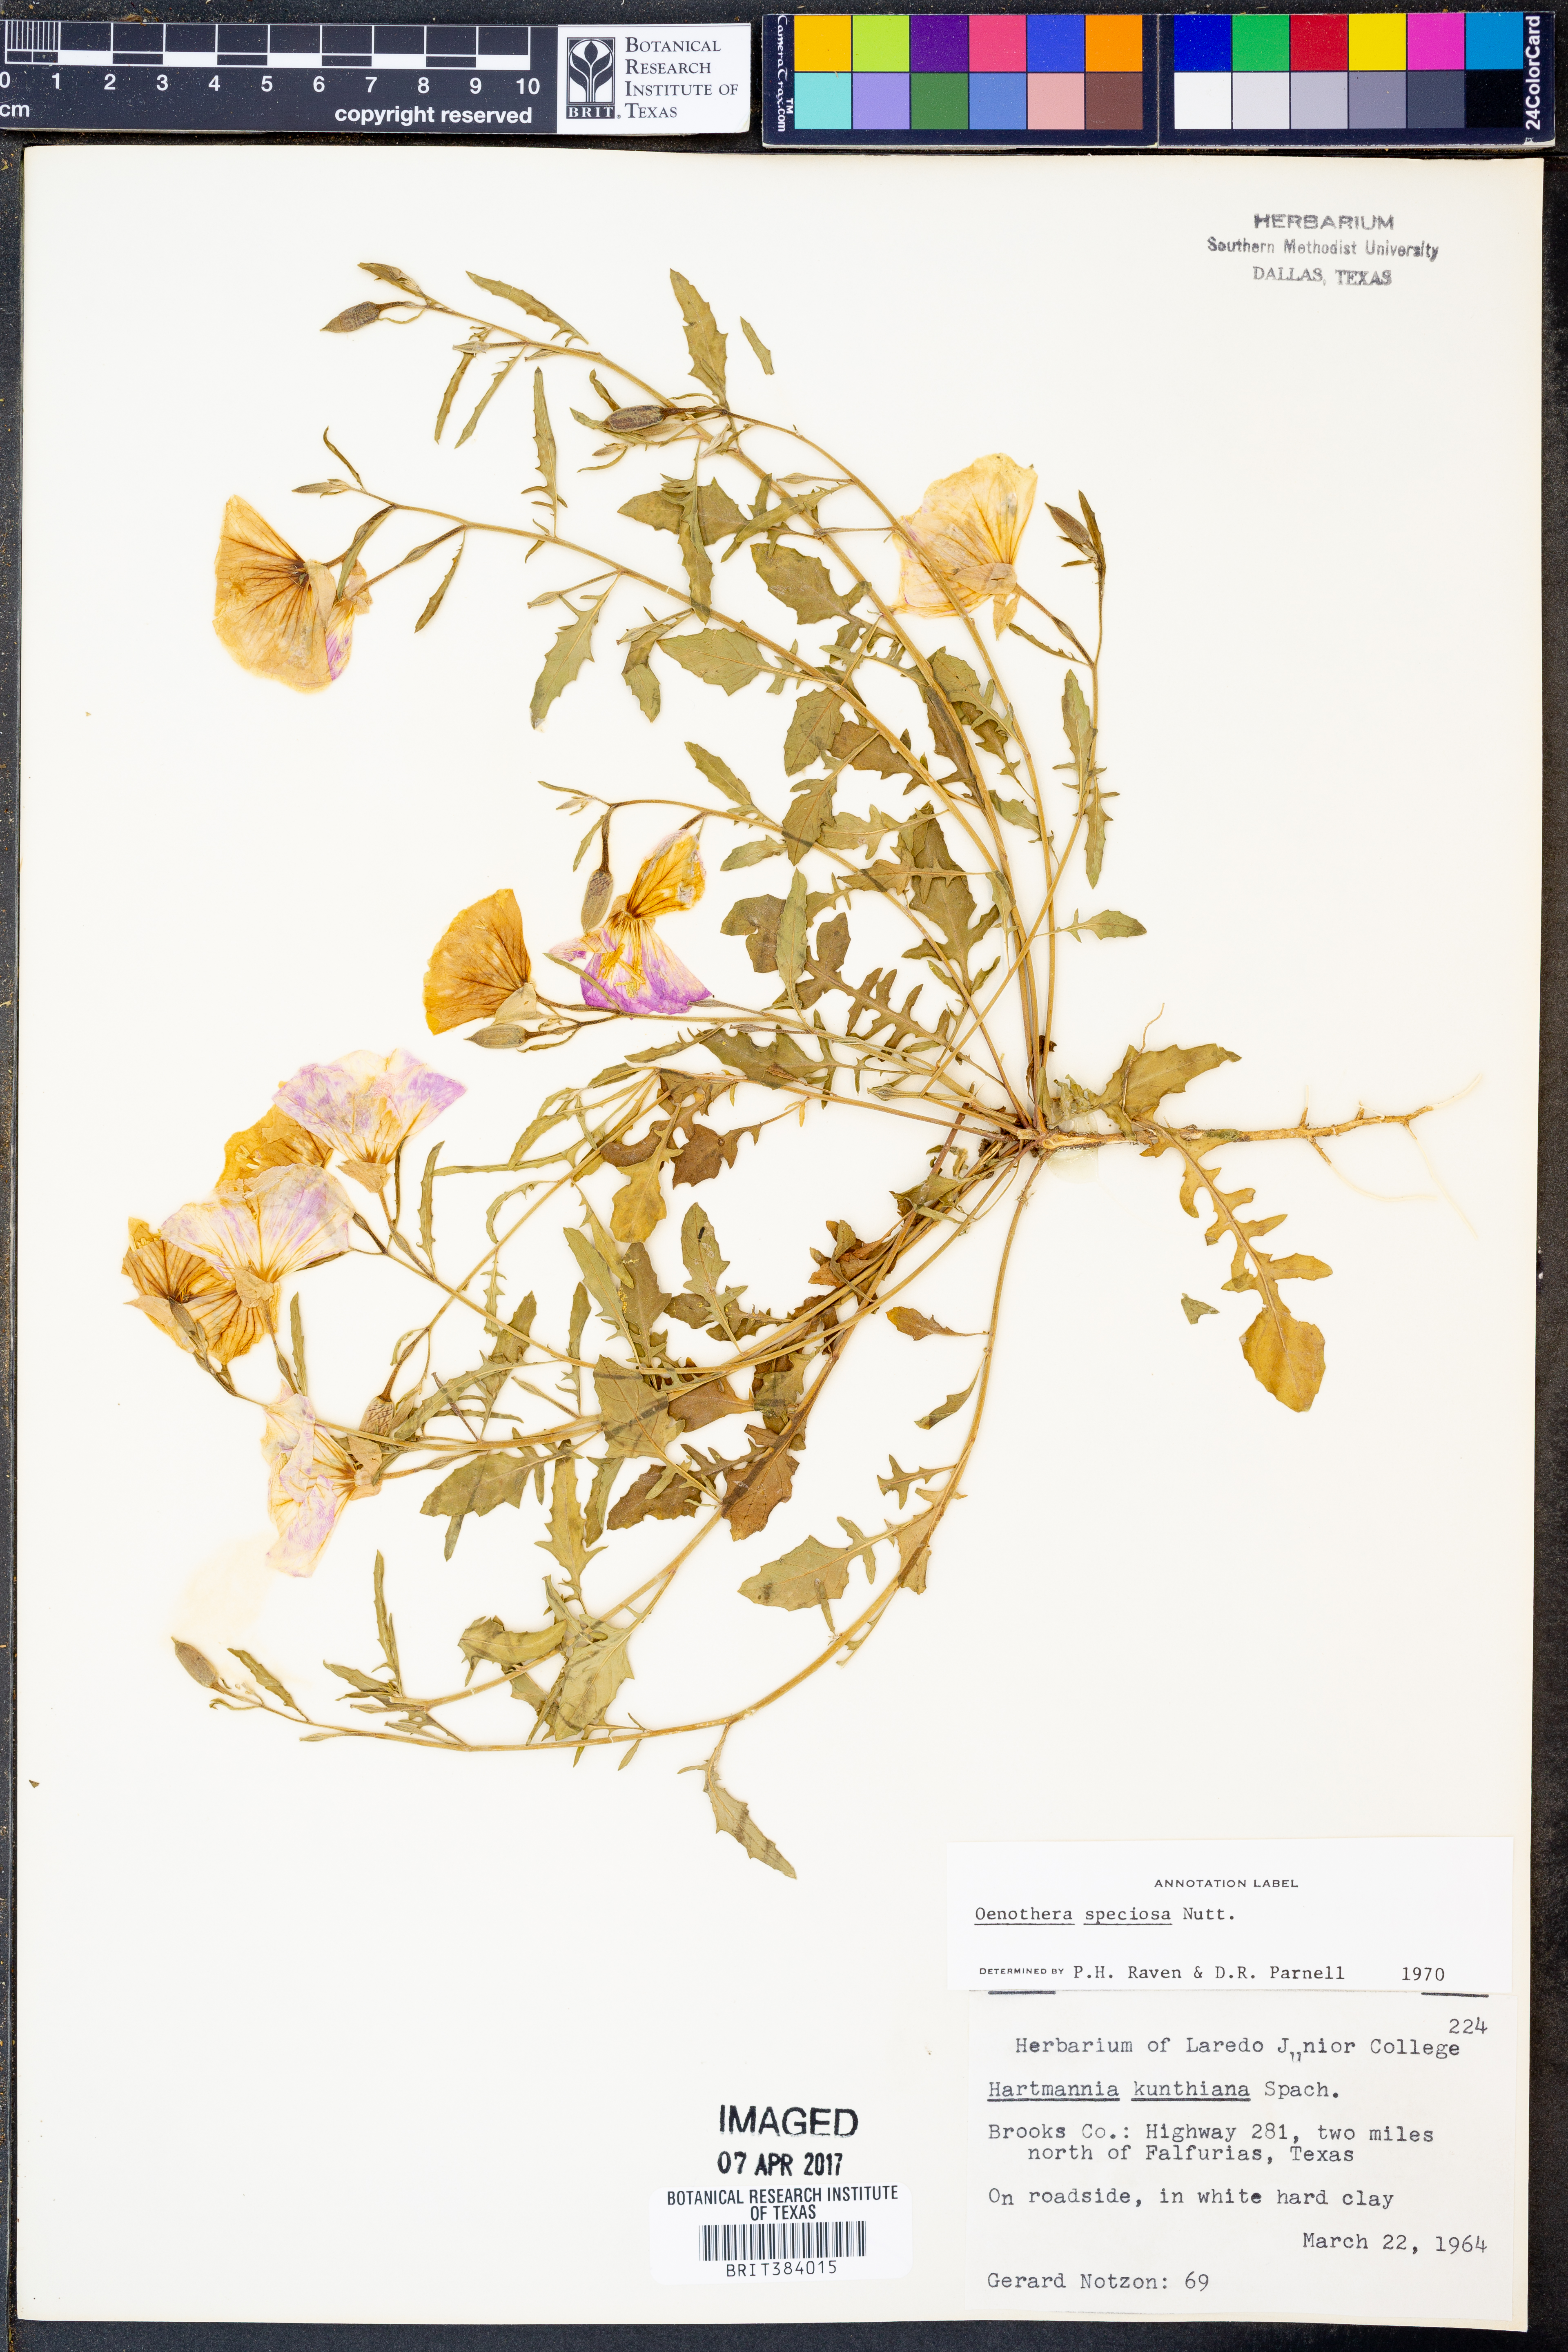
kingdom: Plantae
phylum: Tracheophyta
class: Magnoliopsida
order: Myrtales
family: Onagraceae
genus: Oenothera
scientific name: Oenothera speciosa
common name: White evening-primrose
